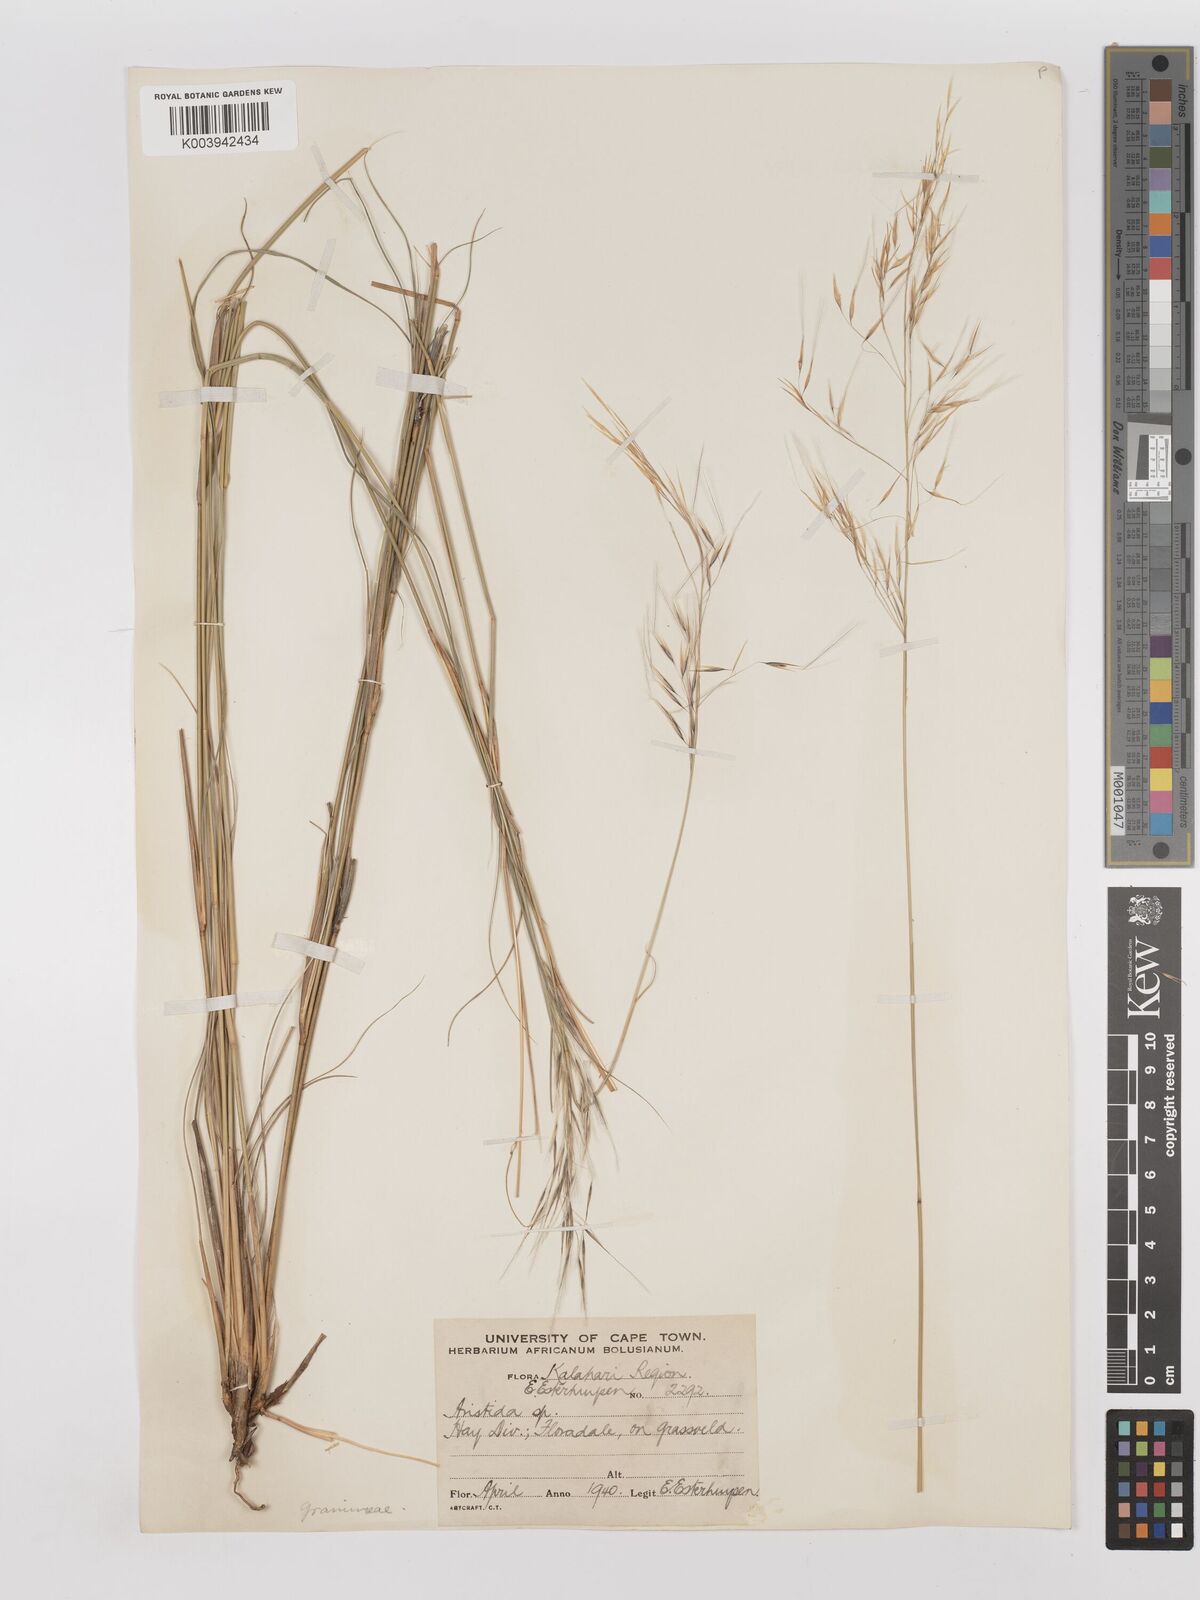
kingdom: Plantae
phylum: Tracheophyta
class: Liliopsida
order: Poales
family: Poaceae
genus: Stipagrostis
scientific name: Stipagrostis uniplumis
